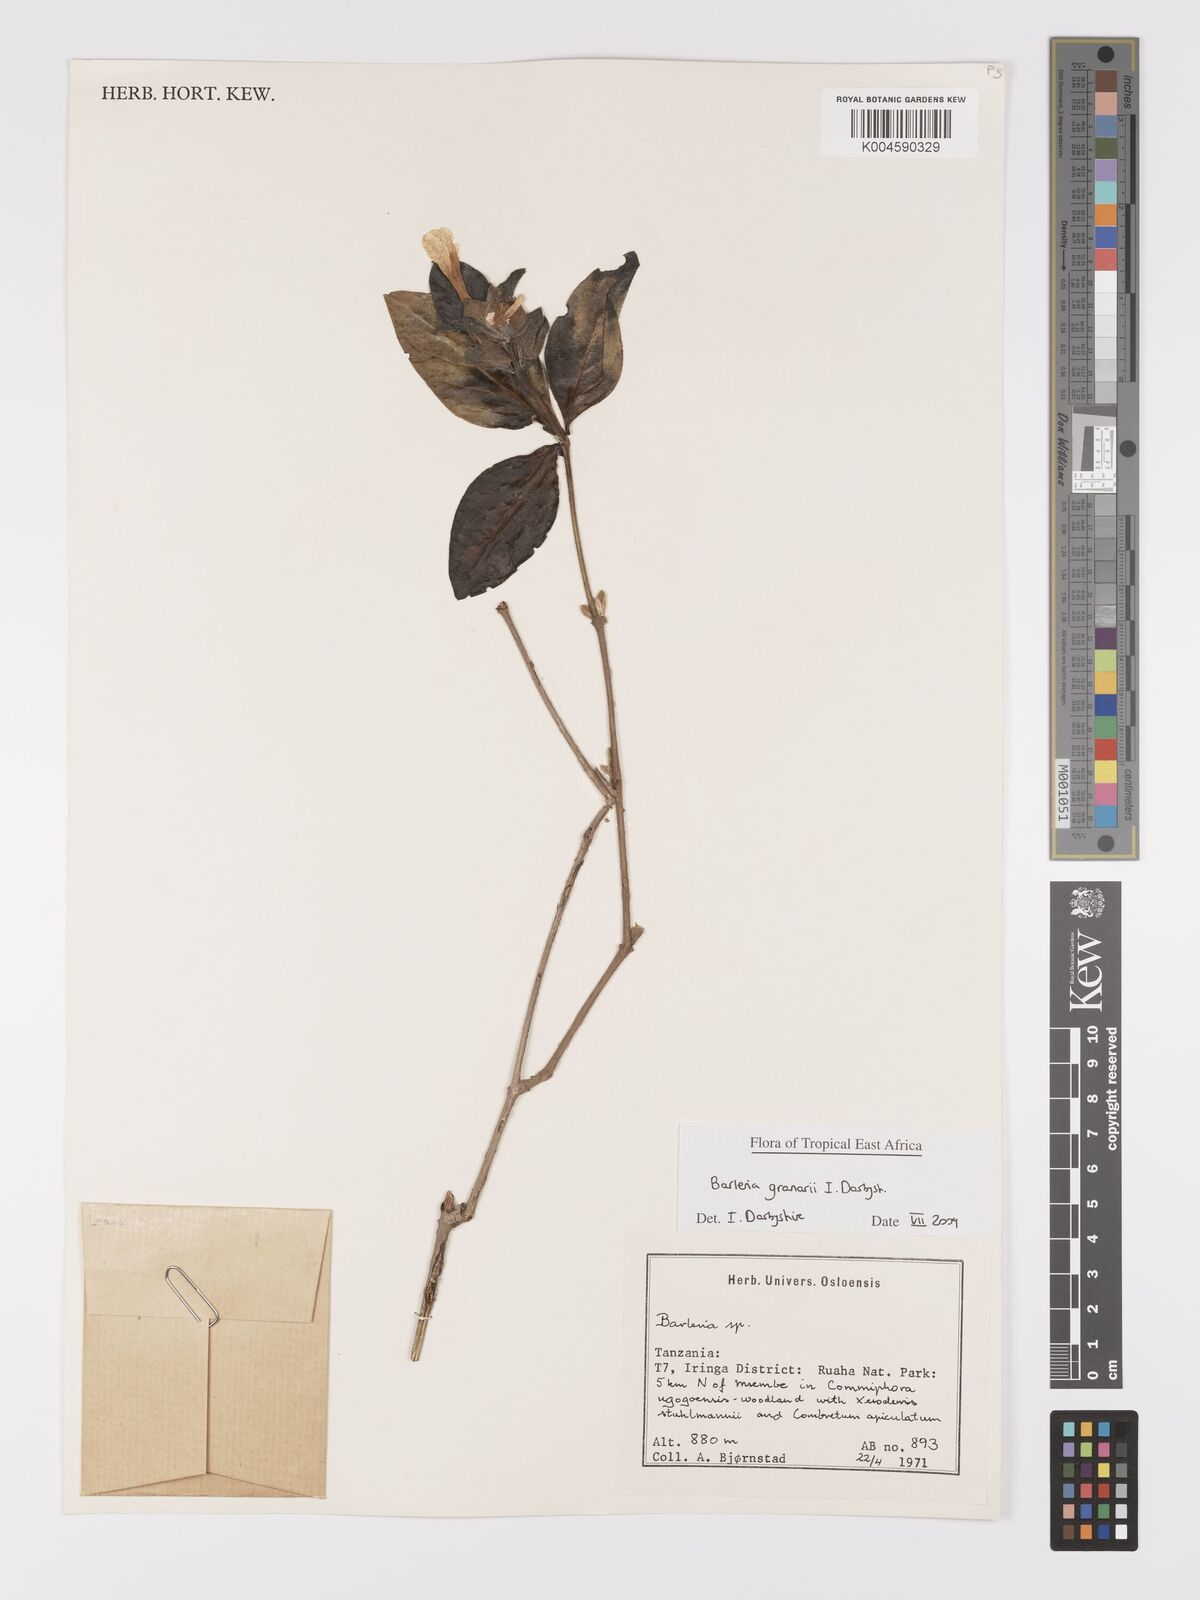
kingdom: Plantae
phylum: Tracheophyta
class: Magnoliopsida
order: Lamiales
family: Acanthaceae
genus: Barleria
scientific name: Barleria granarii
